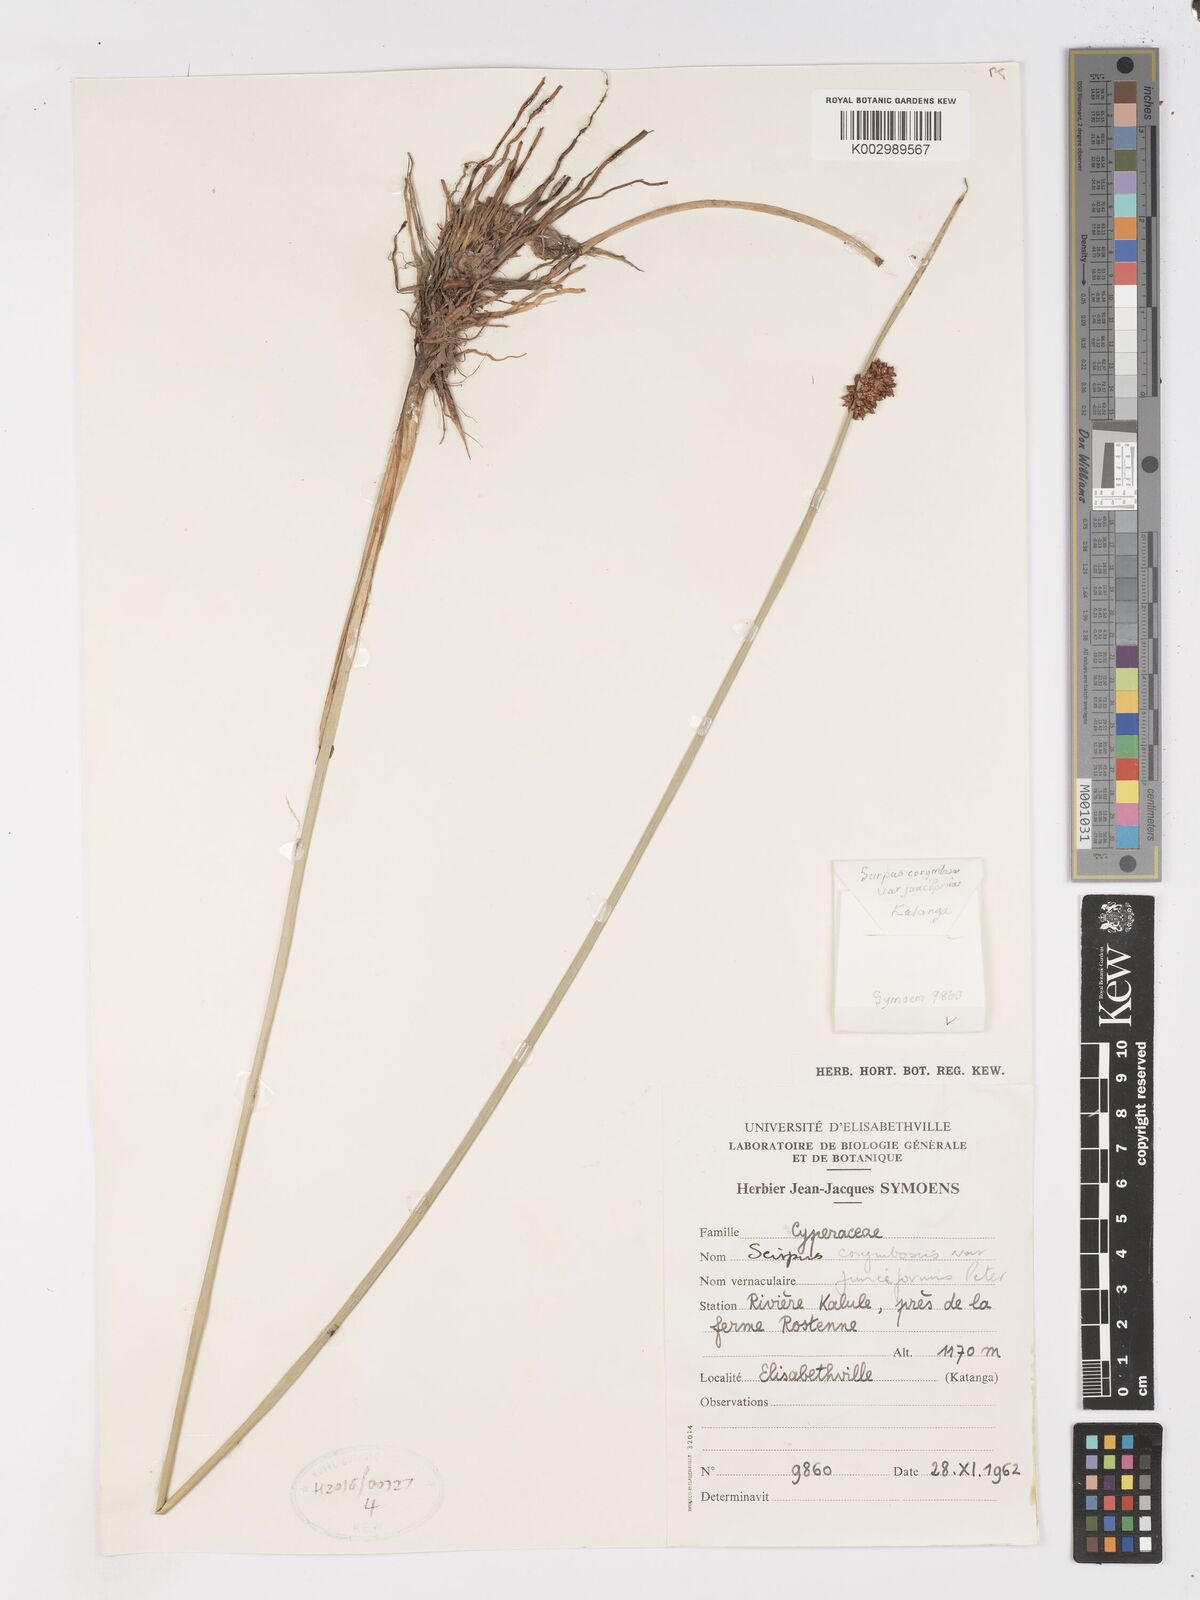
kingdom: Plantae
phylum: Tracheophyta
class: Liliopsida
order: Poales
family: Cyperaceae
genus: Schoenoplectiella
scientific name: Schoenoplectiella corymbosa
